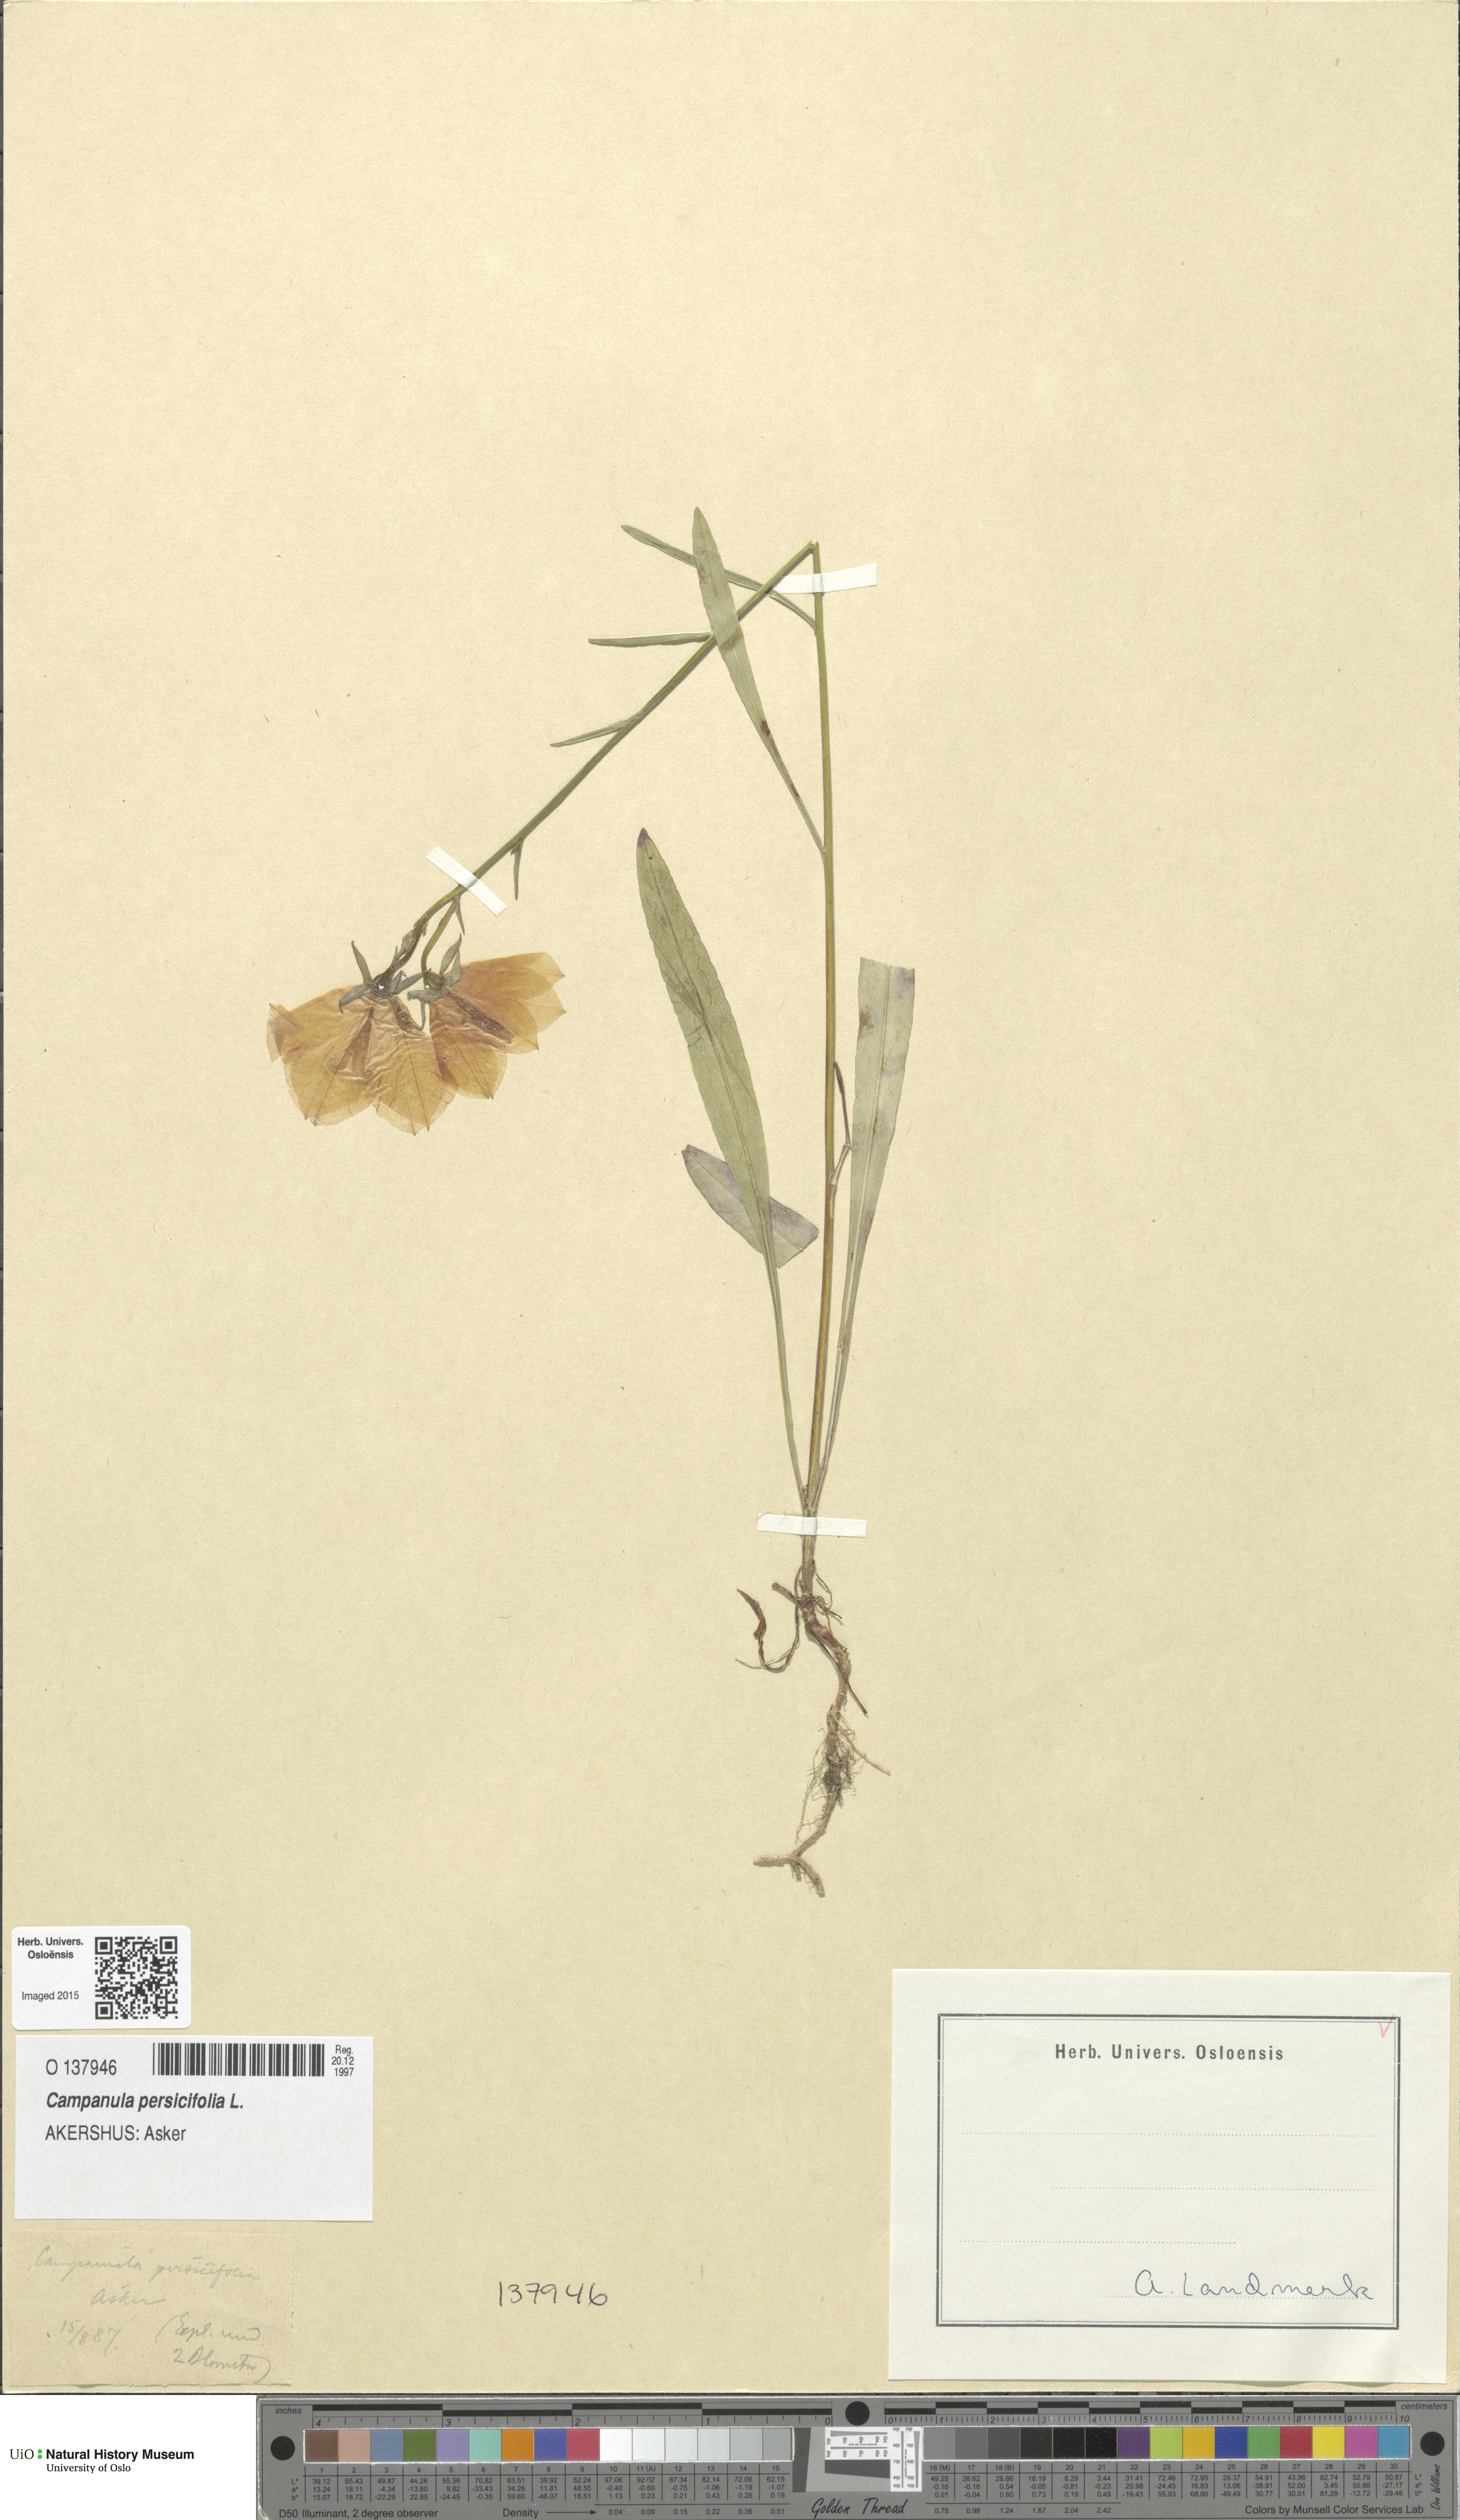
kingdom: Plantae
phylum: Tracheophyta
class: Magnoliopsida
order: Asterales
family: Campanulaceae
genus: Campanula
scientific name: Campanula persicifolia
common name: Peach-leaved bellflower
